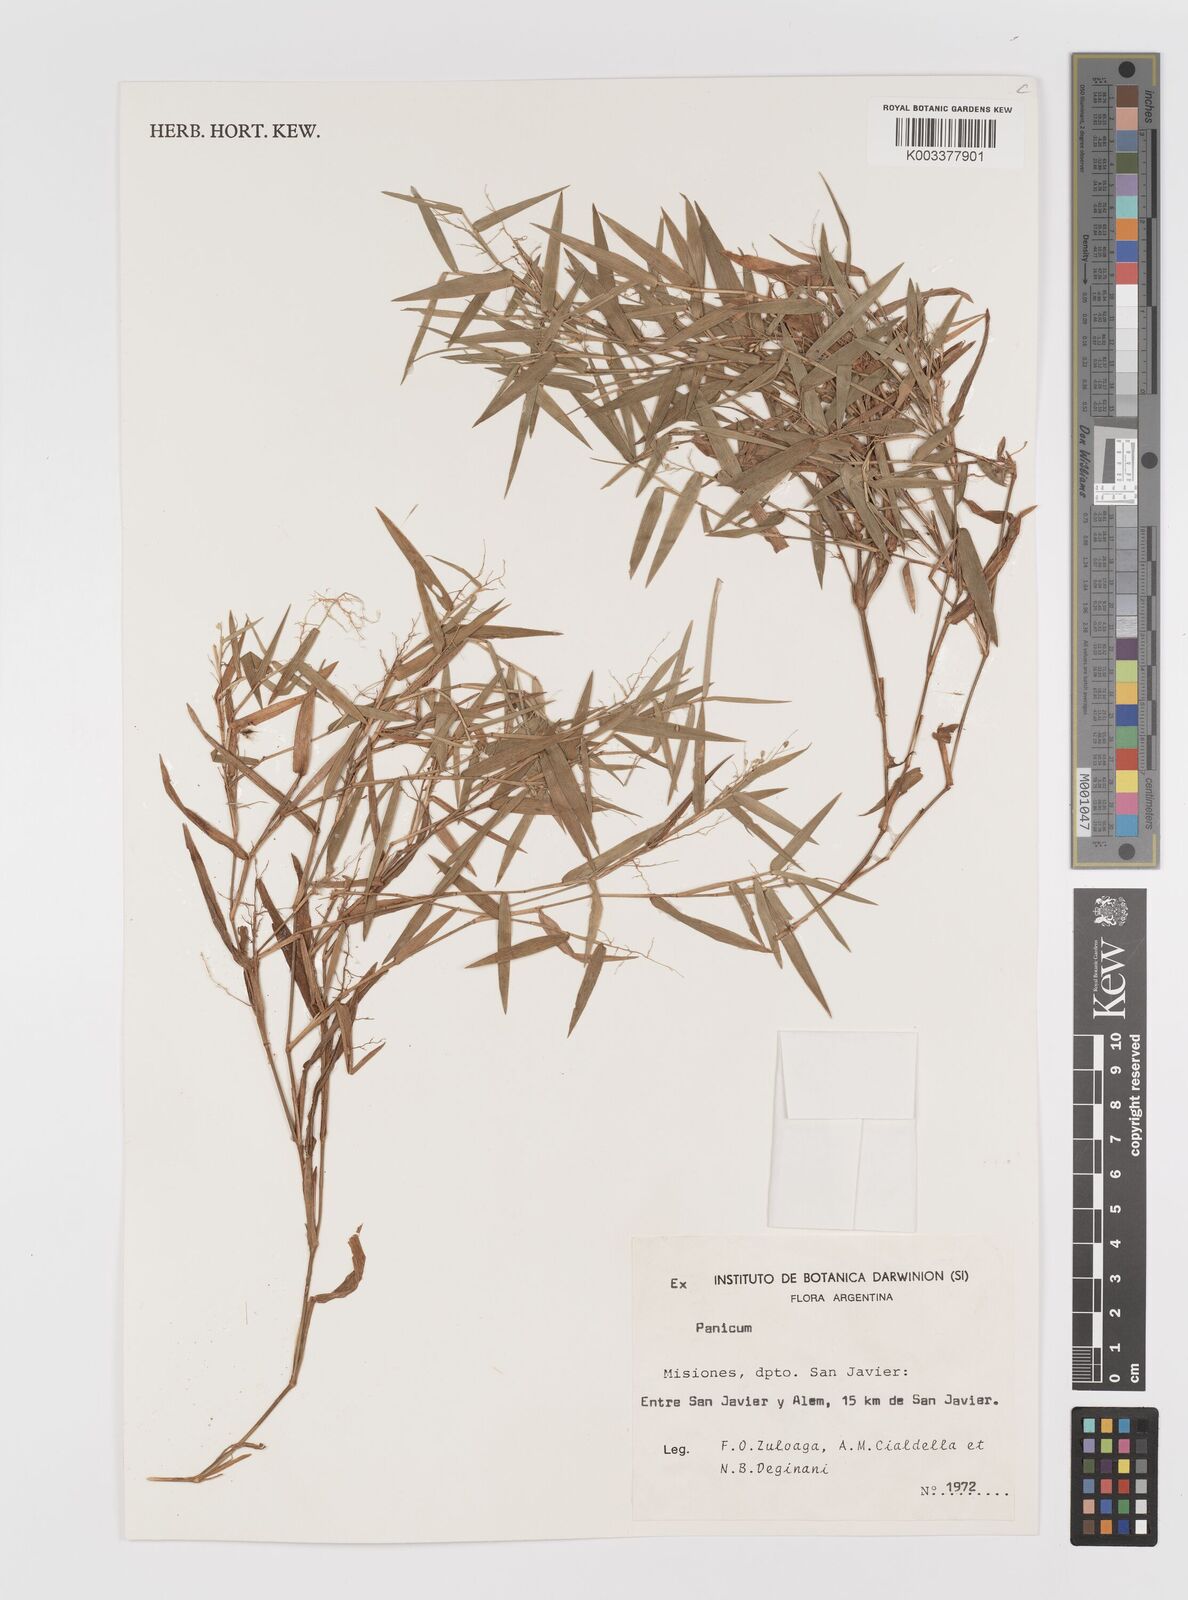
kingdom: Plantae
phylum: Tracheophyta
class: Liliopsida
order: Poales
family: Poaceae
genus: Panicum
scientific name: Panicum
